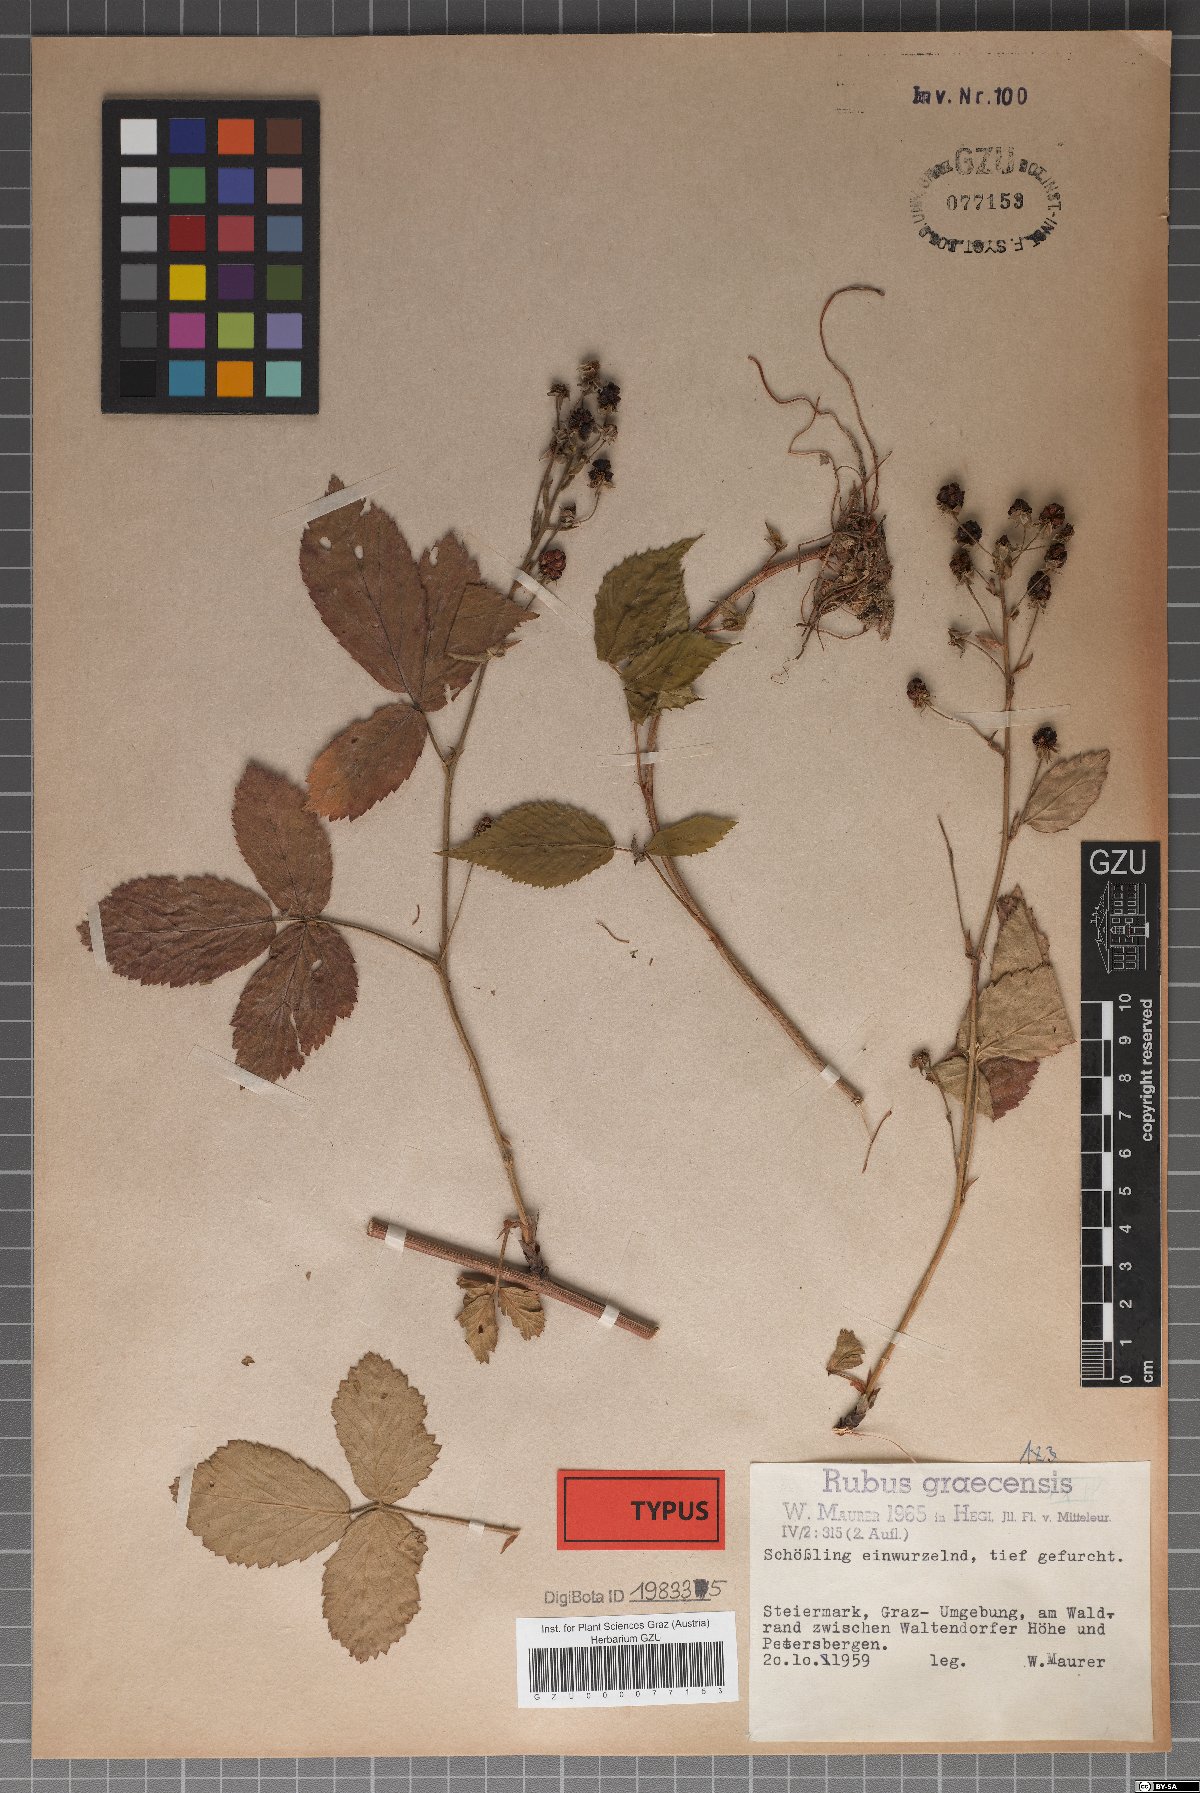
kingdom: Plantae
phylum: Tracheophyta
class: Magnoliopsida
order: Rosales
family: Rosaceae
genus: Rubus
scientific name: Rubus graecensis
